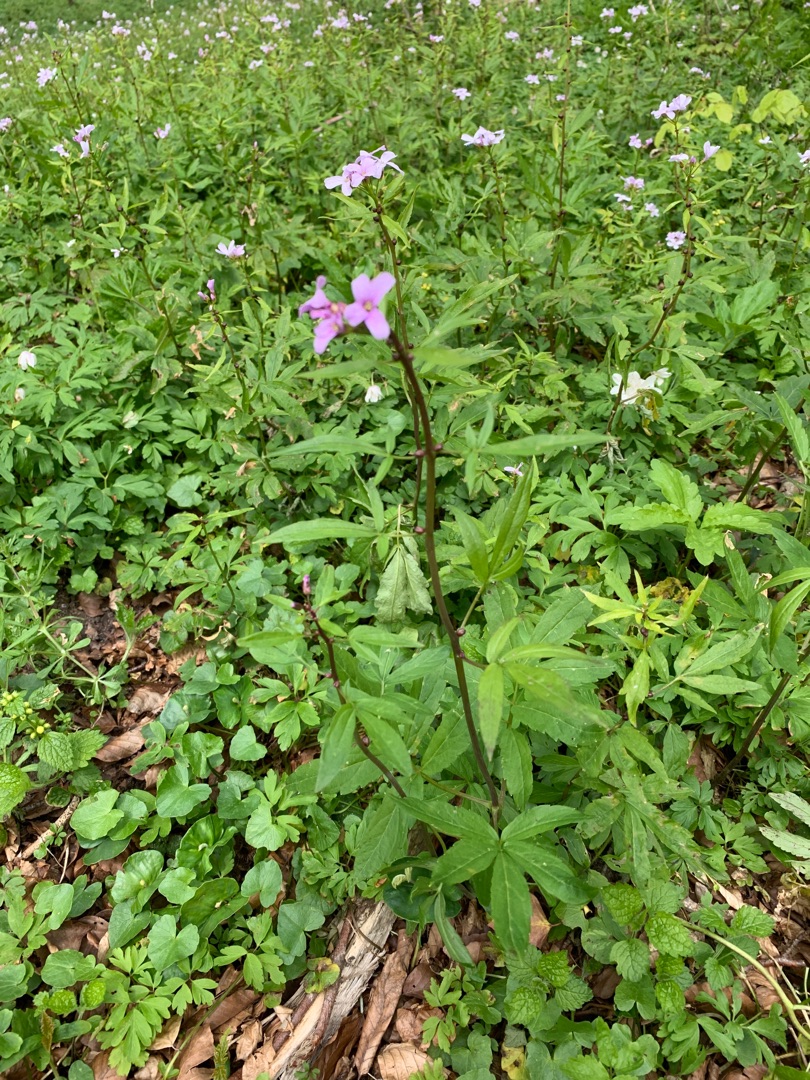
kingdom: Plantae
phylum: Tracheophyta
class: Magnoliopsida
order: Brassicales
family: Brassicaceae
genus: Cardamine
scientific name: Cardamine bulbifera
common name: Tandrod
